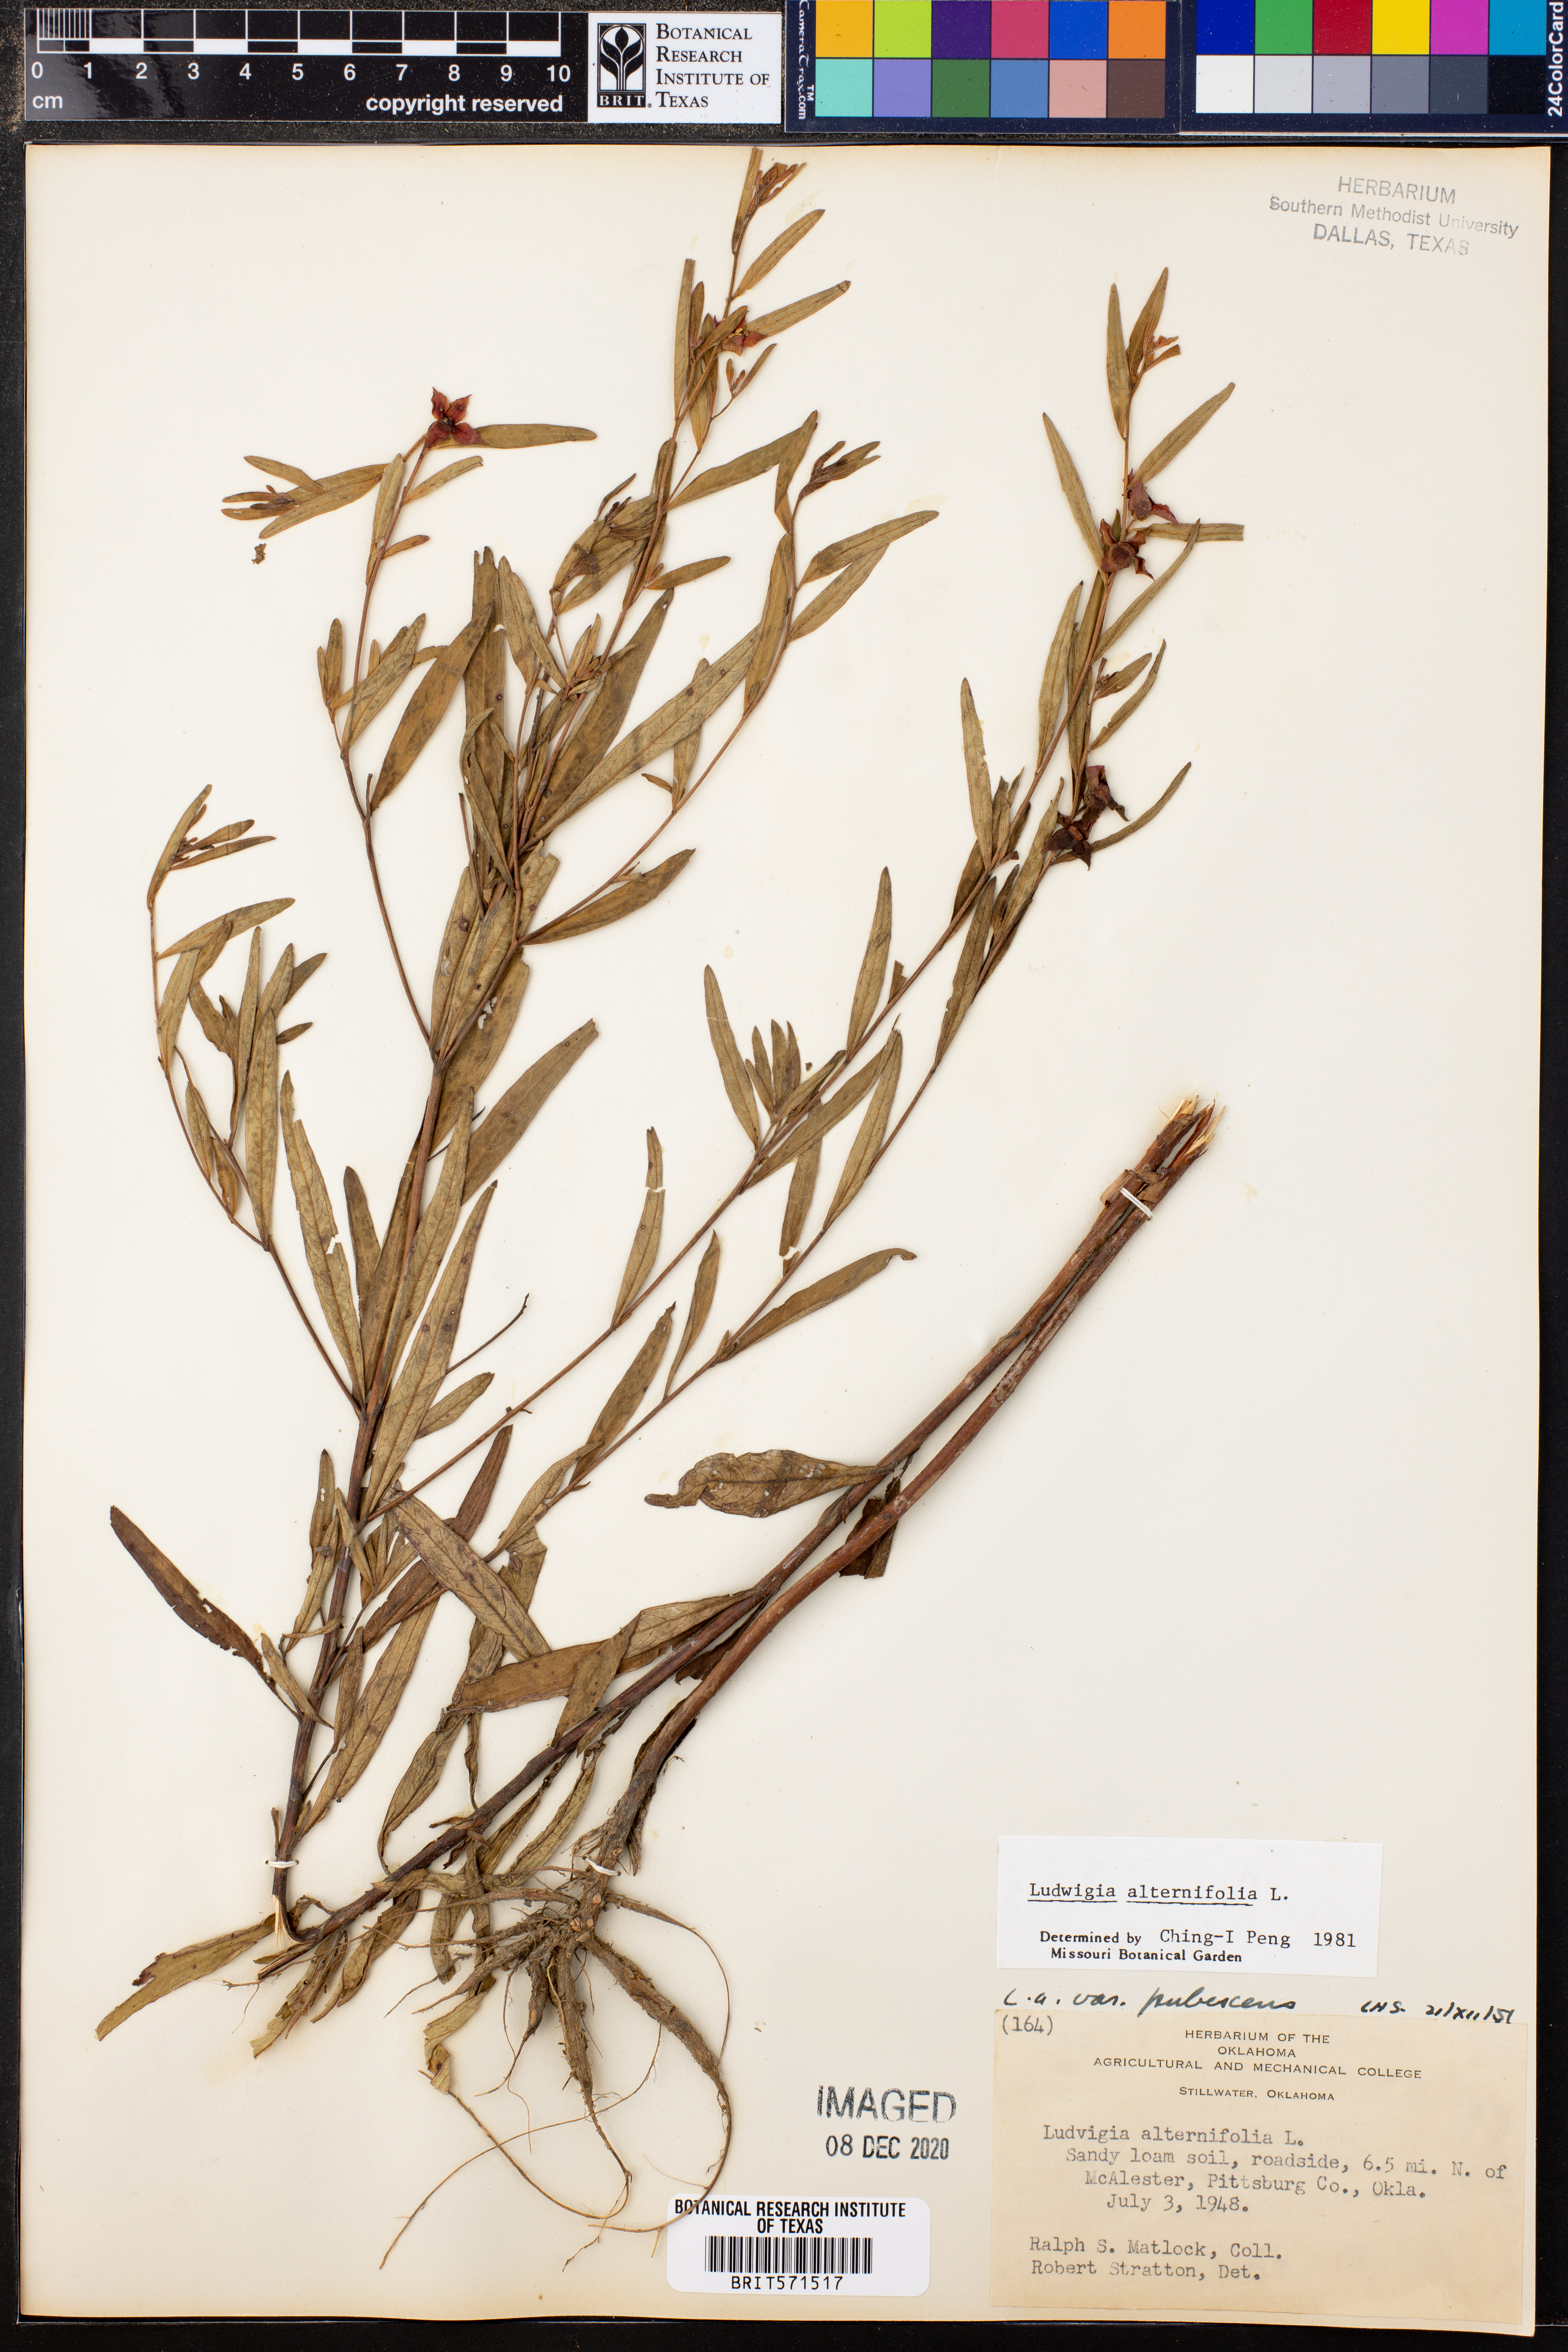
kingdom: Plantae
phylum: Tracheophyta
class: Magnoliopsida
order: Myrtales
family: Onagraceae
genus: Ludwigia
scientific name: Ludwigia alternifolia
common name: Rattlebox
